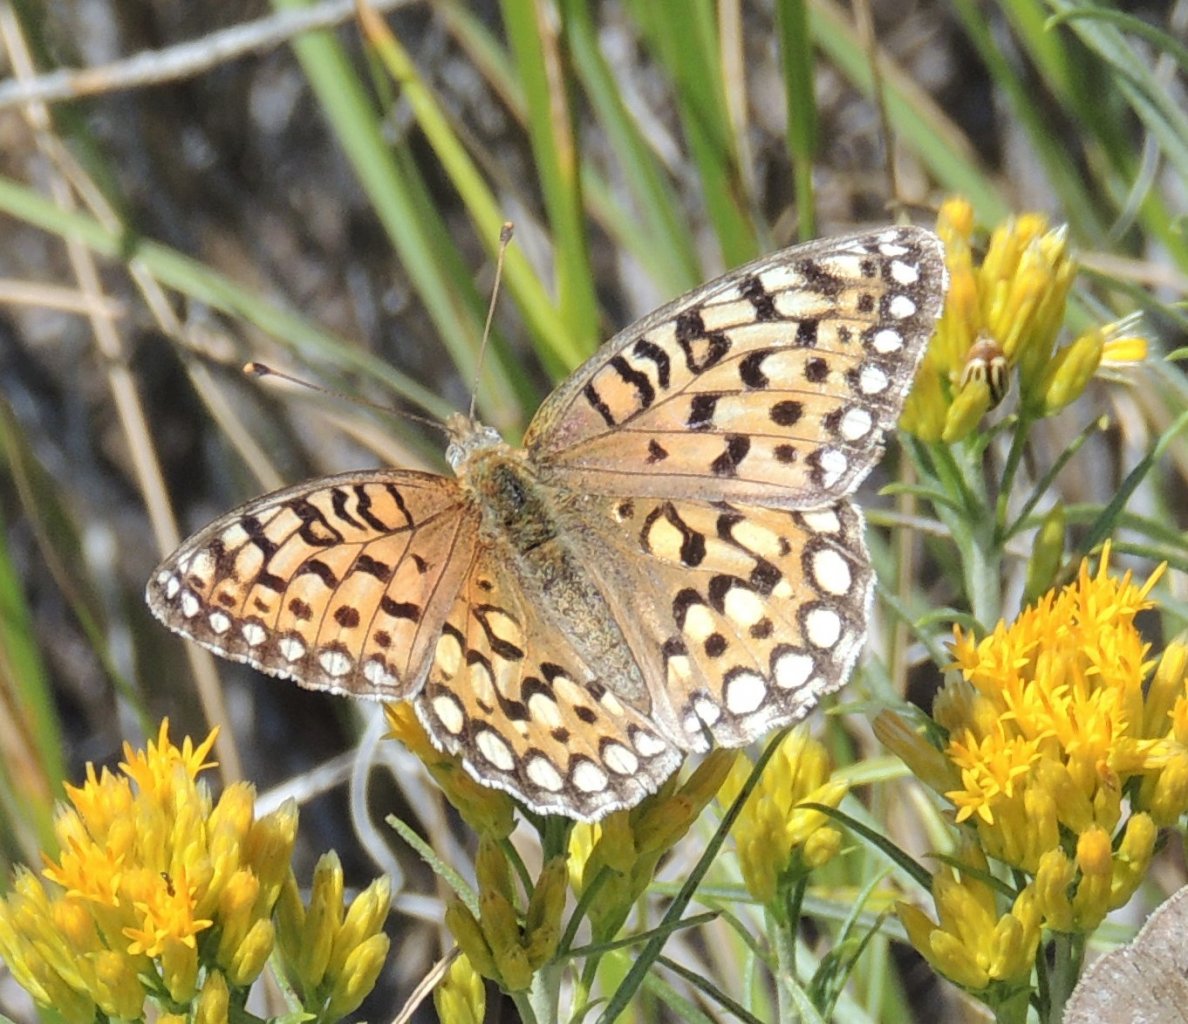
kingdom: Animalia
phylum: Arthropoda
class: Insecta
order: Lepidoptera
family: Nymphalidae
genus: Speyeria
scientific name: Speyeria callippe
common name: Callippe Fritillary
